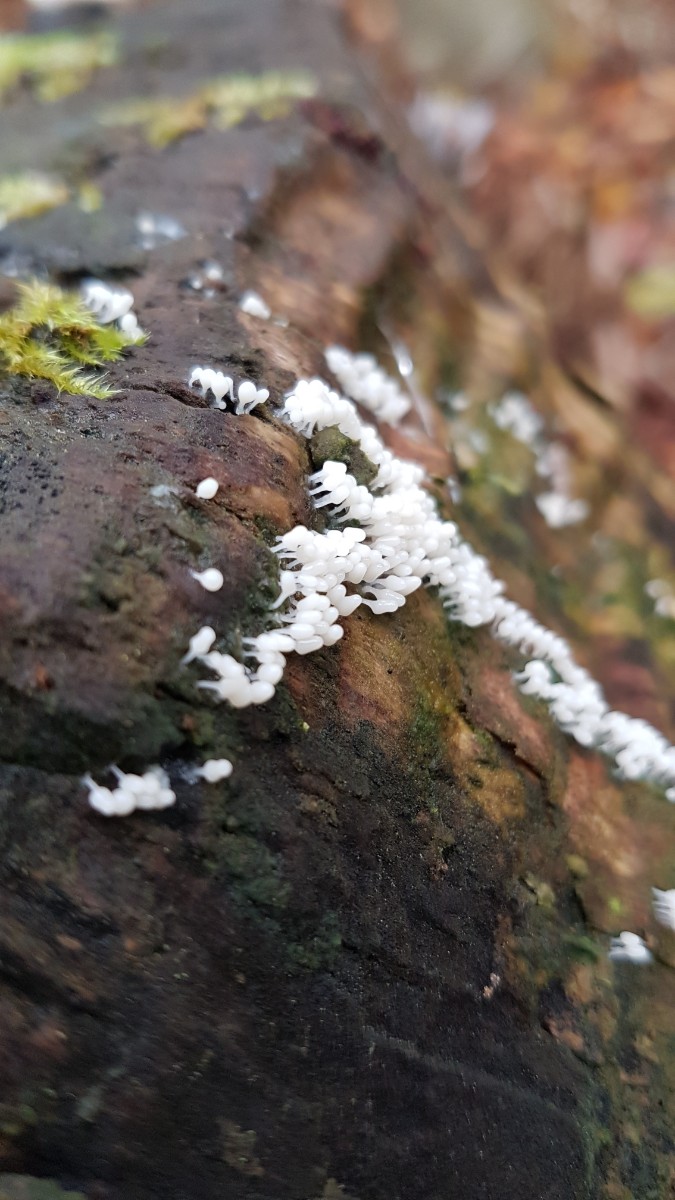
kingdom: Protozoa
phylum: Mycetozoa
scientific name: Mycetozoa
